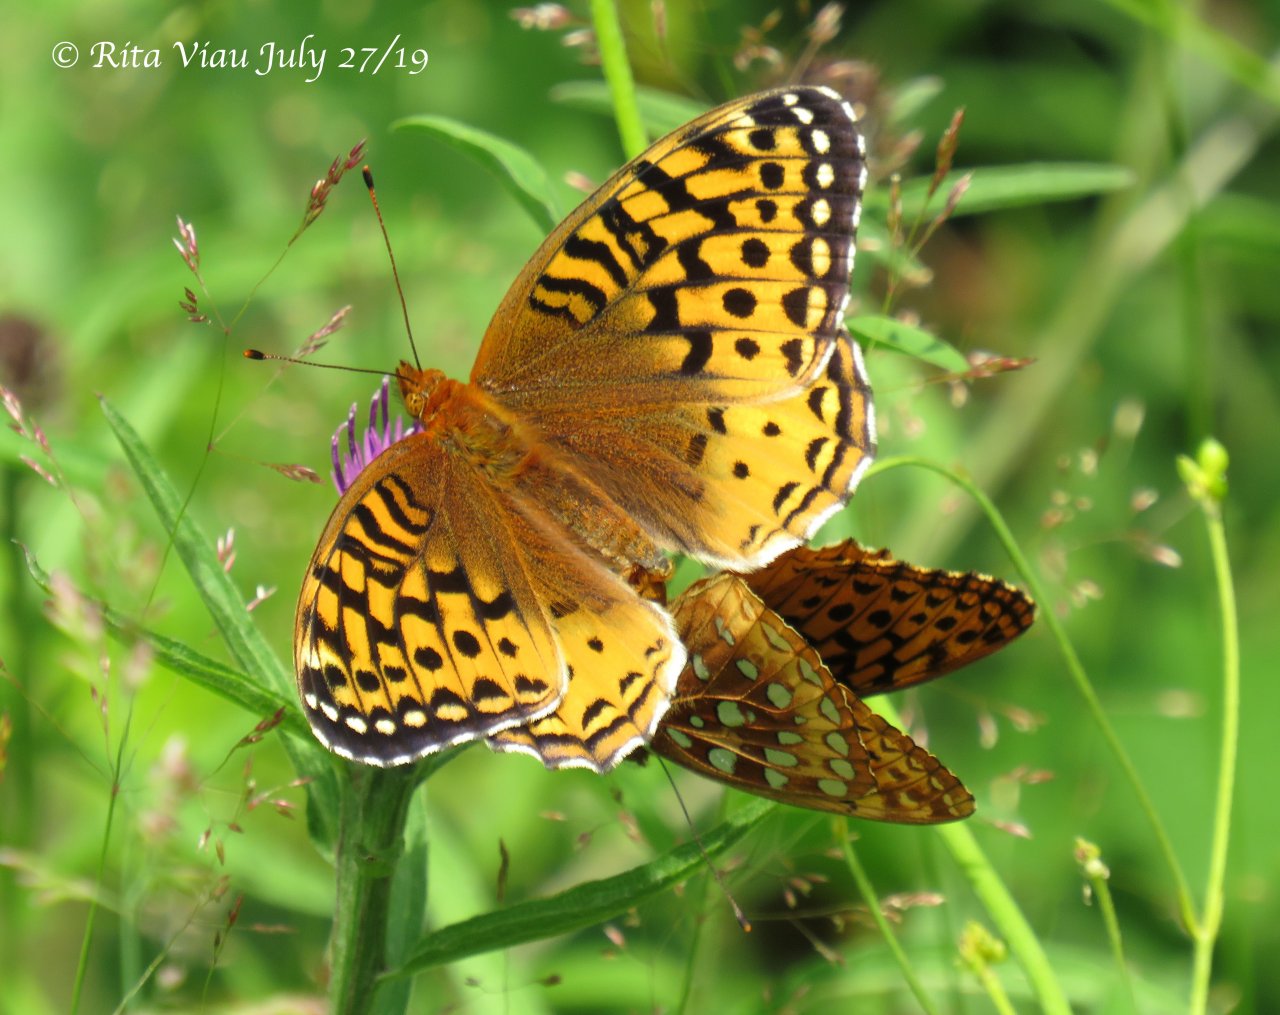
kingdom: Animalia
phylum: Arthropoda
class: Insecta
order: Lepidoptera
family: Nymphalidae
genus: Speyeria
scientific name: Speyeria cybele
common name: Great Spangled Fritillary
